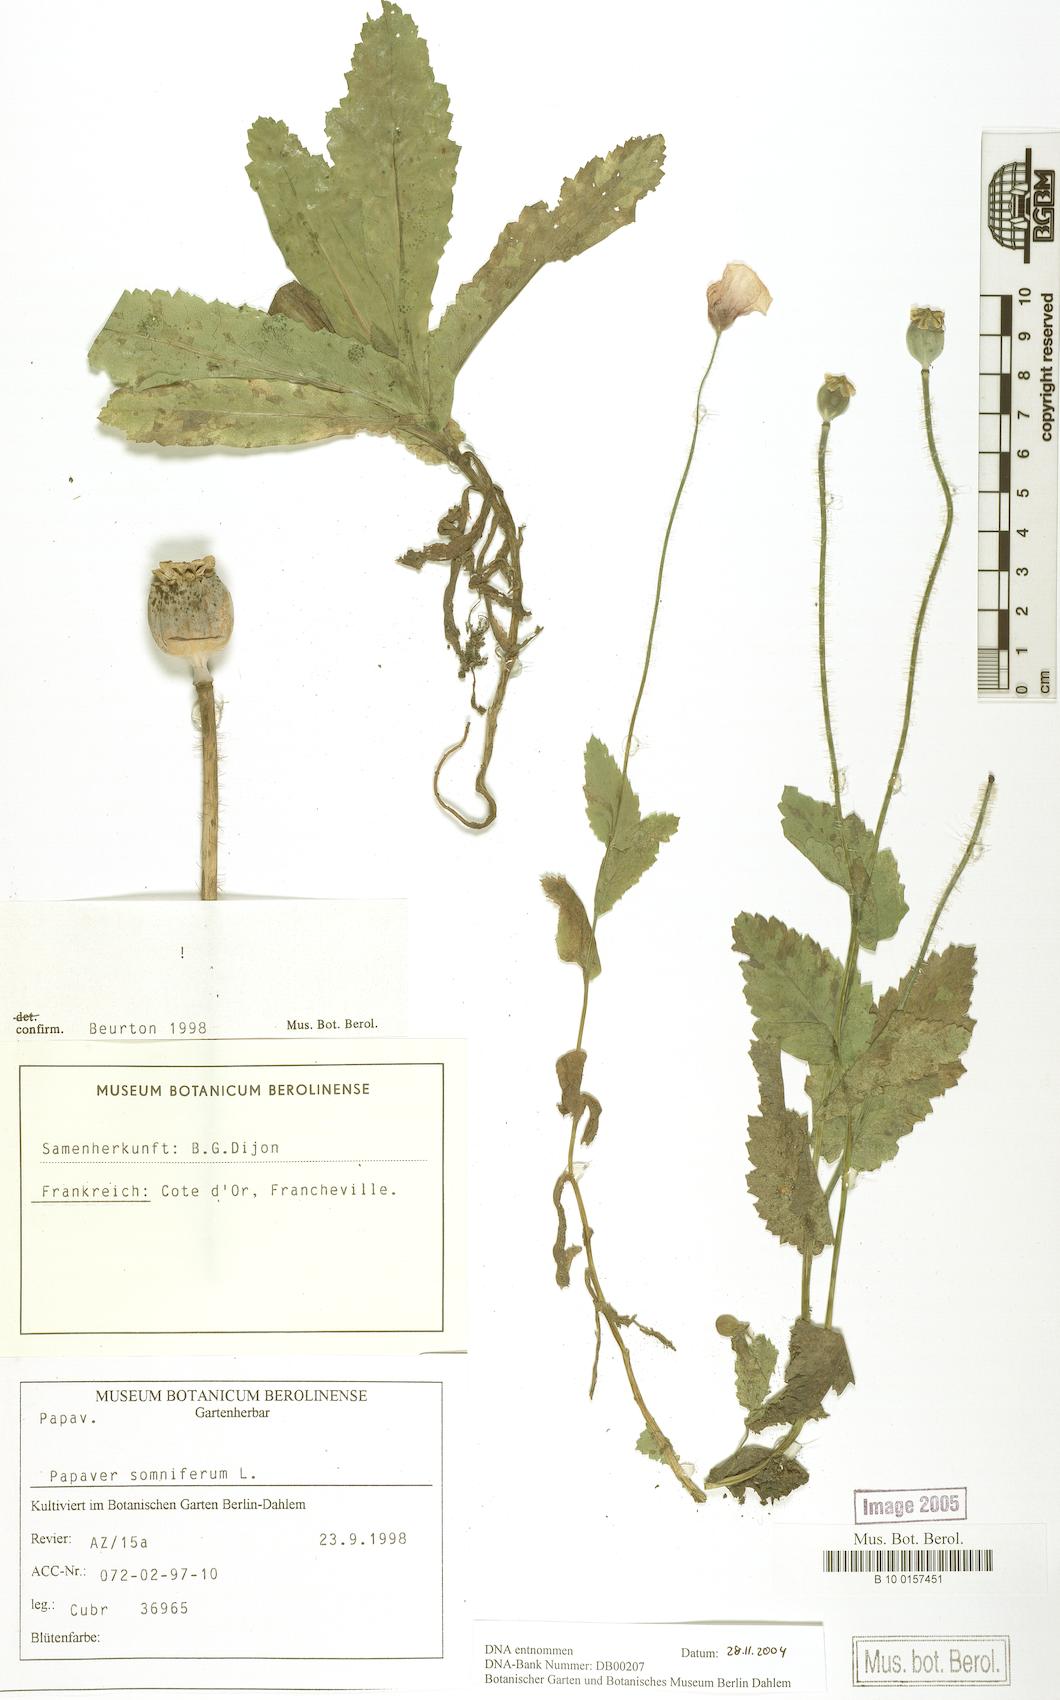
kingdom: Plantae
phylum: Tracheophyta
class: Magnoliopsida
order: Ranunculales
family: Papaveraceae
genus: Papaver
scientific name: Papaver somniferum
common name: Opium poppy
